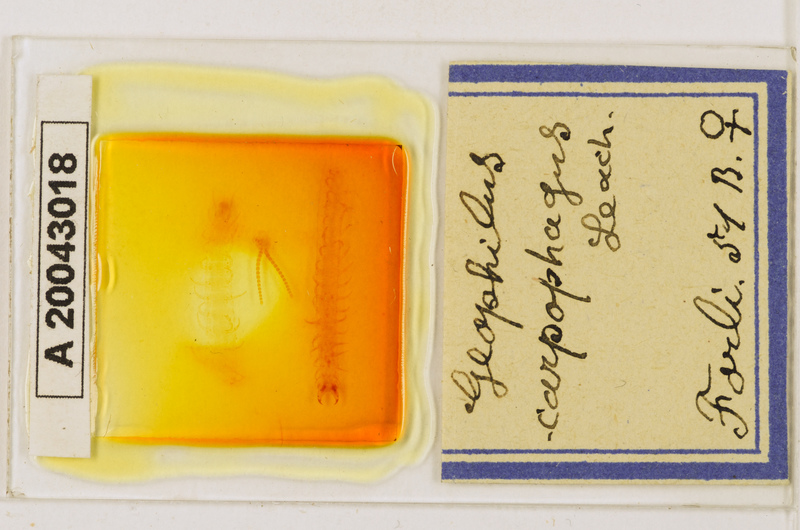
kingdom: Animalia
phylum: Arthropoda
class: Chilopoda
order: Geophilomorpha
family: Geophilidae
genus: Geophilus
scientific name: Geophilus carpophagus
